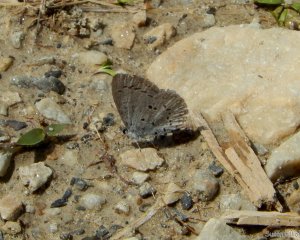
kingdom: Animalia
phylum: Arthropoda
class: Insecta
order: Lepidoptera
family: Lycaenidae
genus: Celastrina
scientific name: Celastrina lucia
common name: Northern Spring Azure
